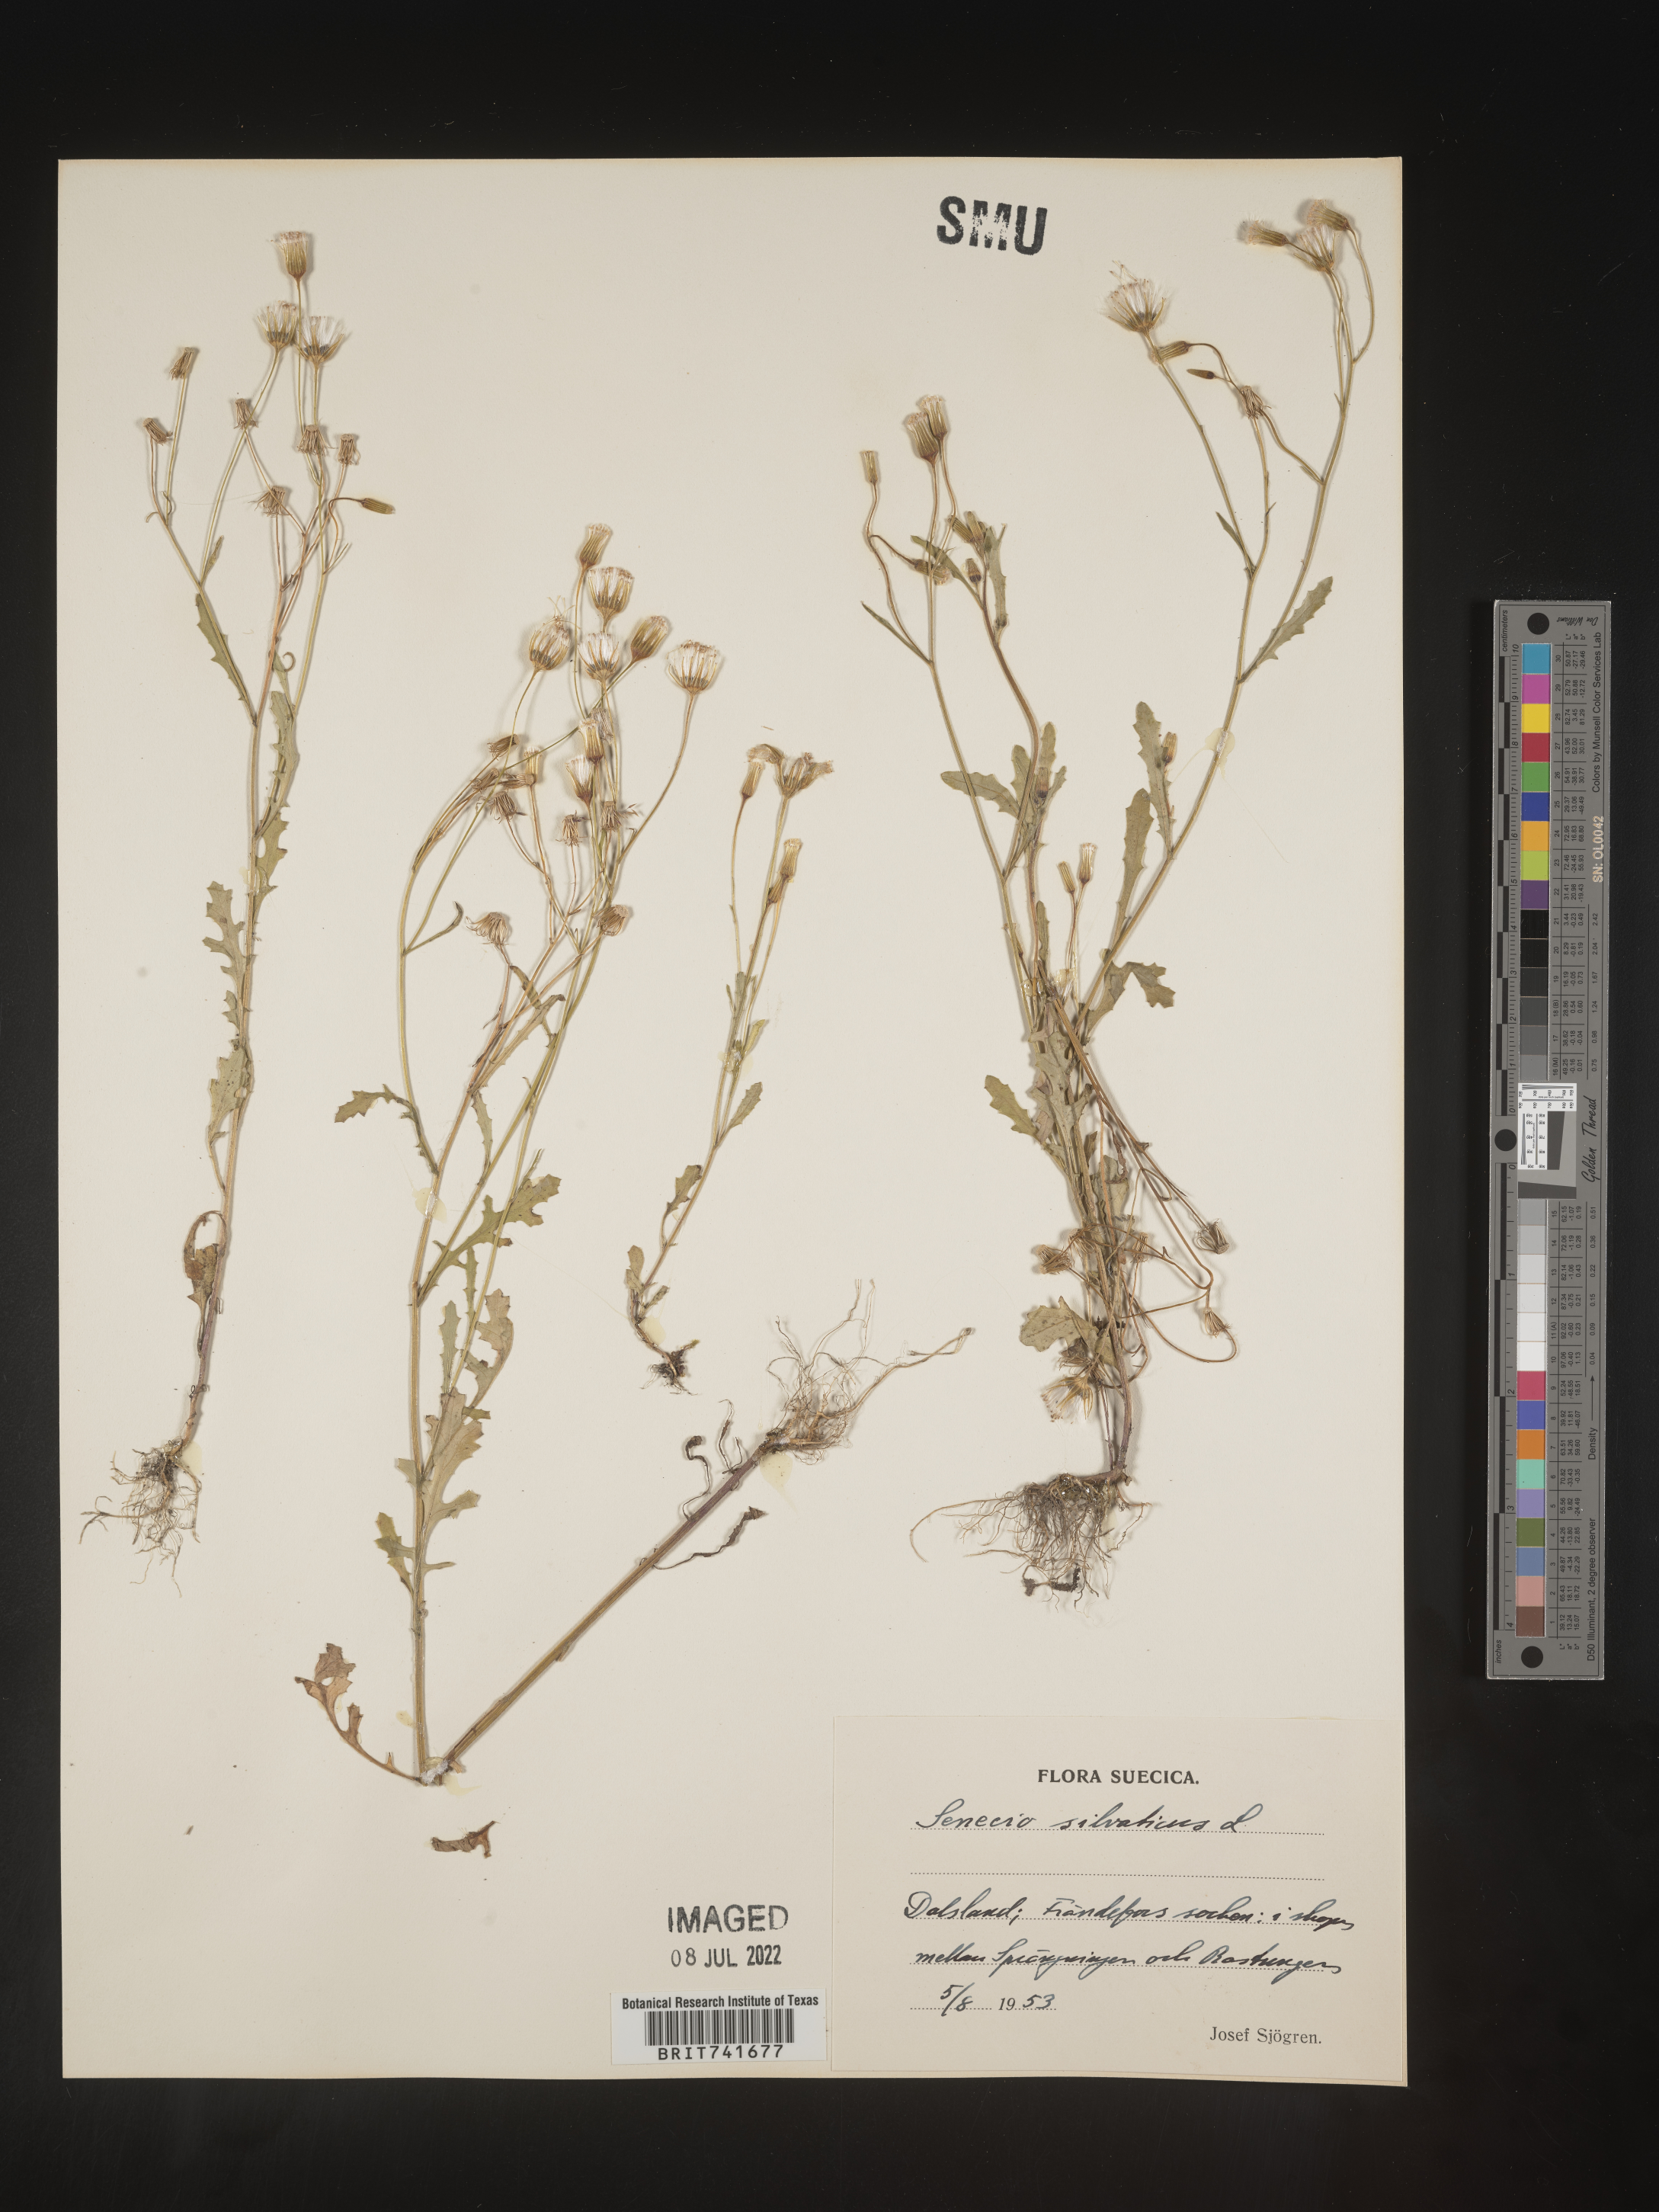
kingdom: Plantae
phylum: Tracheophyta
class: Magnoliopsida
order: Asterales
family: Asteraceae
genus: Senecio
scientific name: Senecio
